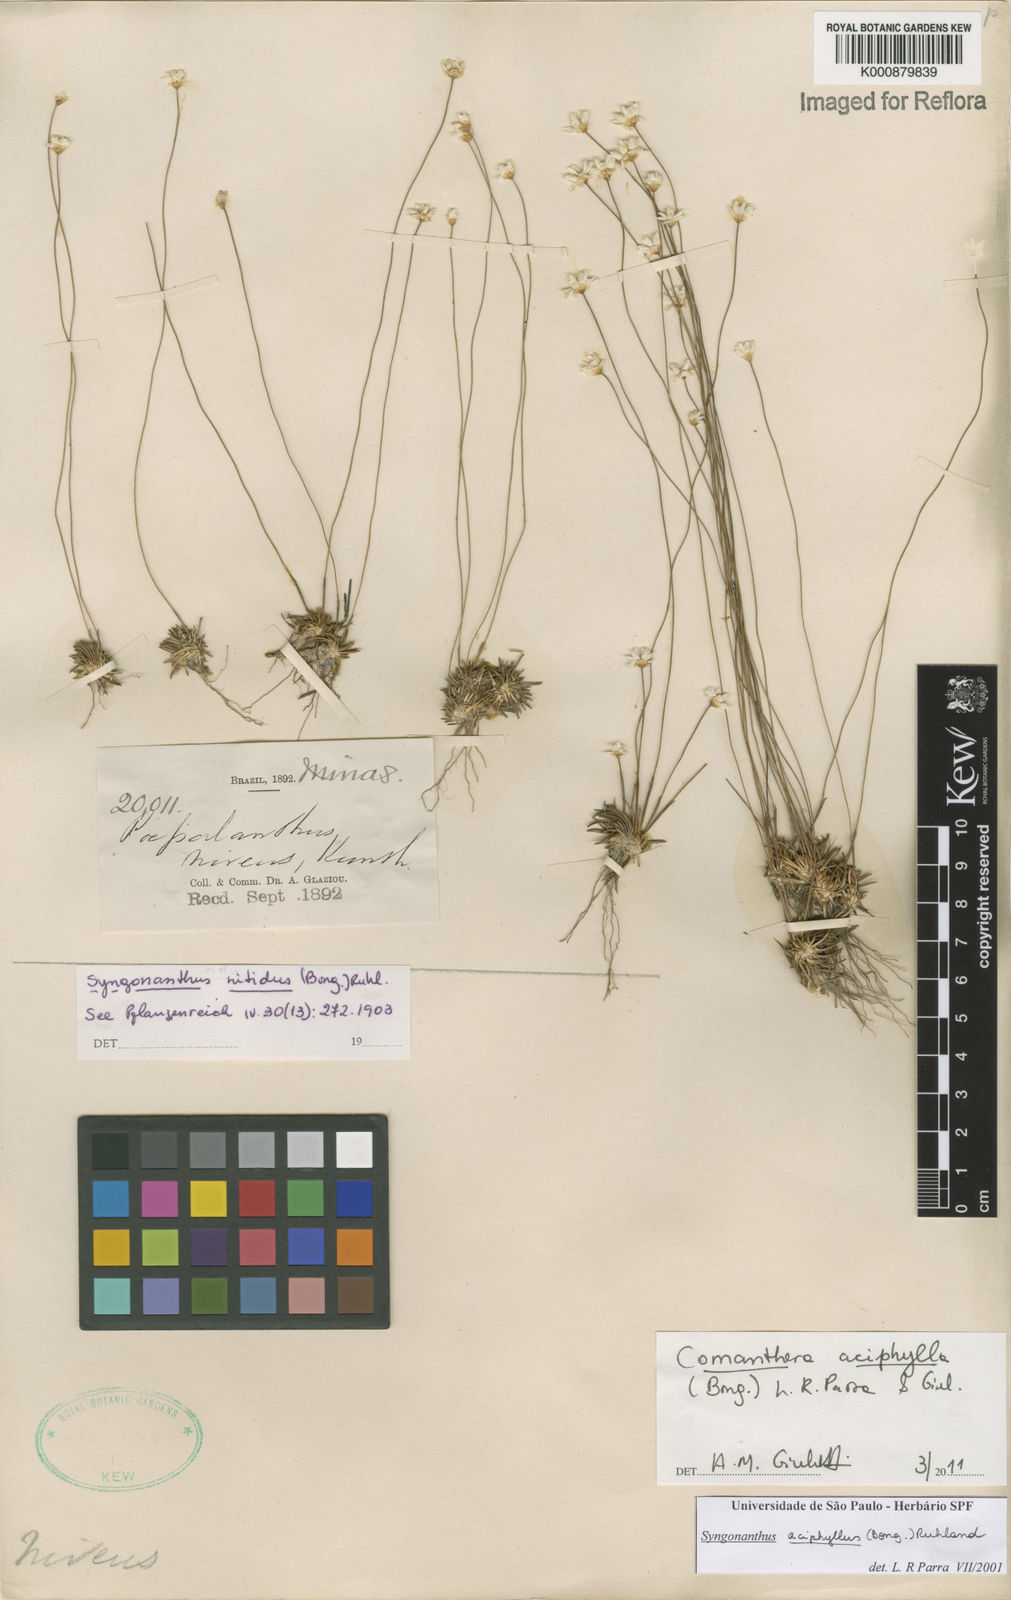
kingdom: Plantae
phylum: Tracheophyta
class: Liliopsida
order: Poales
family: Eriocaulaceae
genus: Comanthera
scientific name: Comanthera aciphylla
